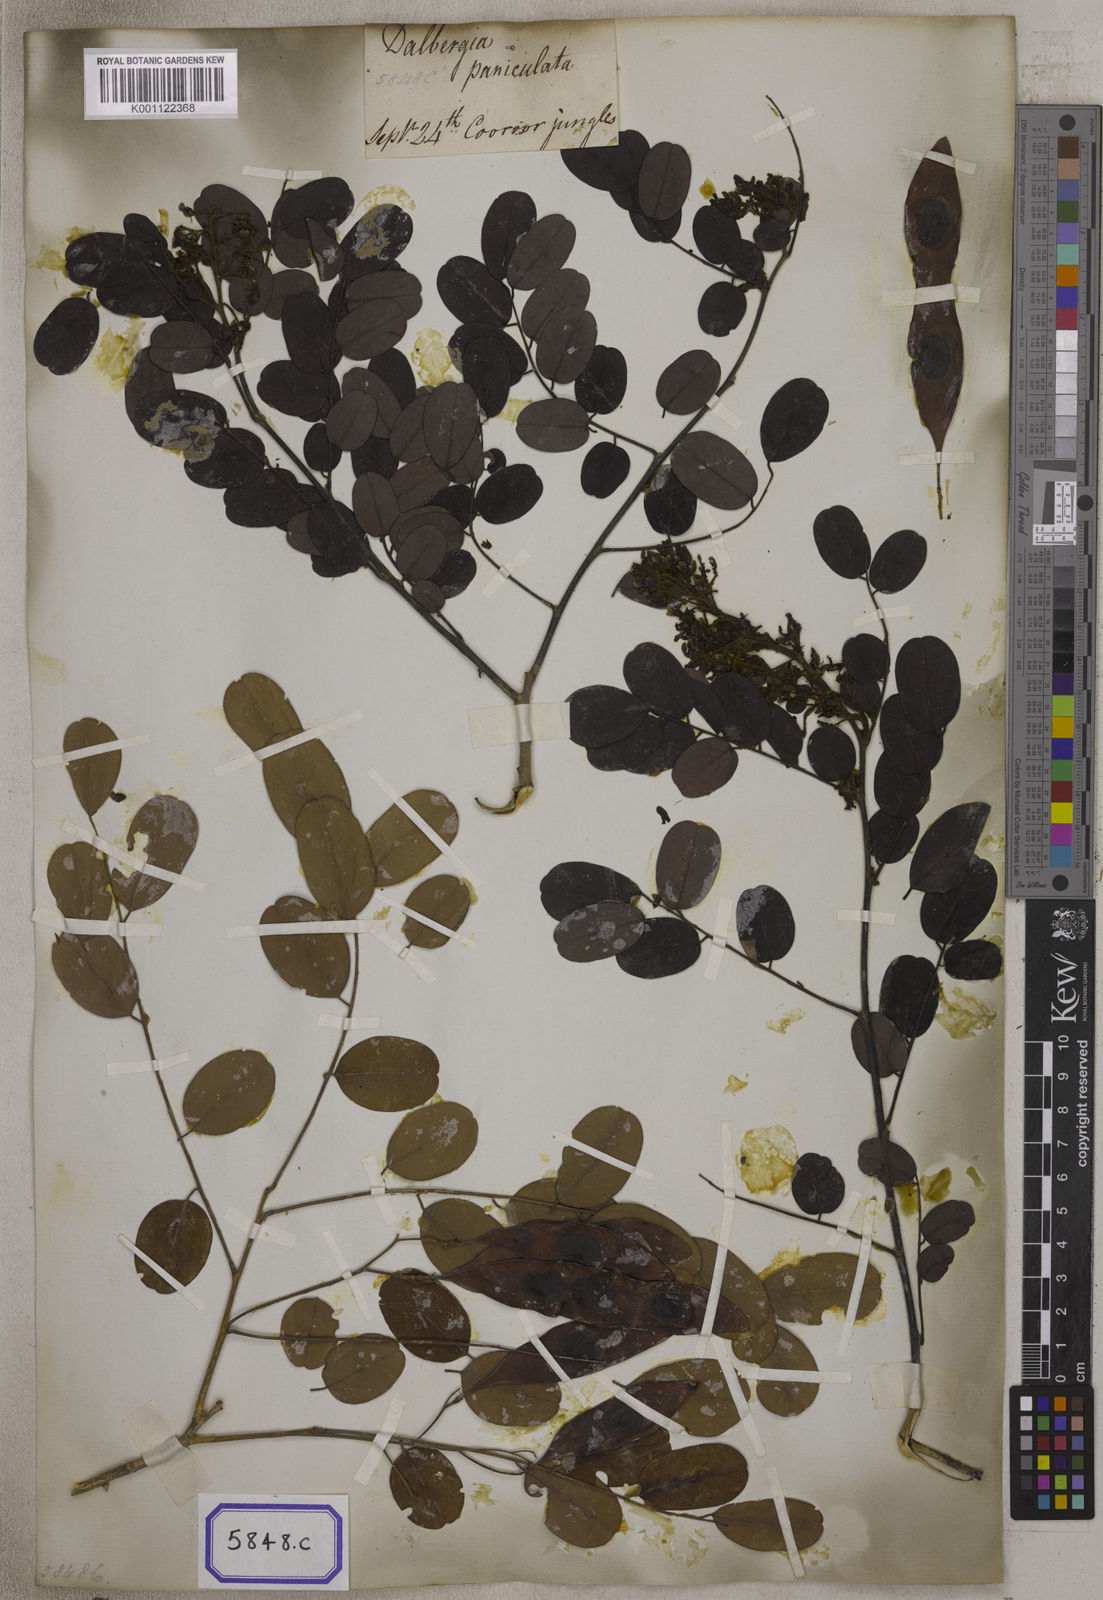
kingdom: Plantae
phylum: Tracheophyta
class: Magnoliopsida
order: Fabales
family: Fabaceae
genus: Dalbergia
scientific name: Dalbergia lanceolaria
